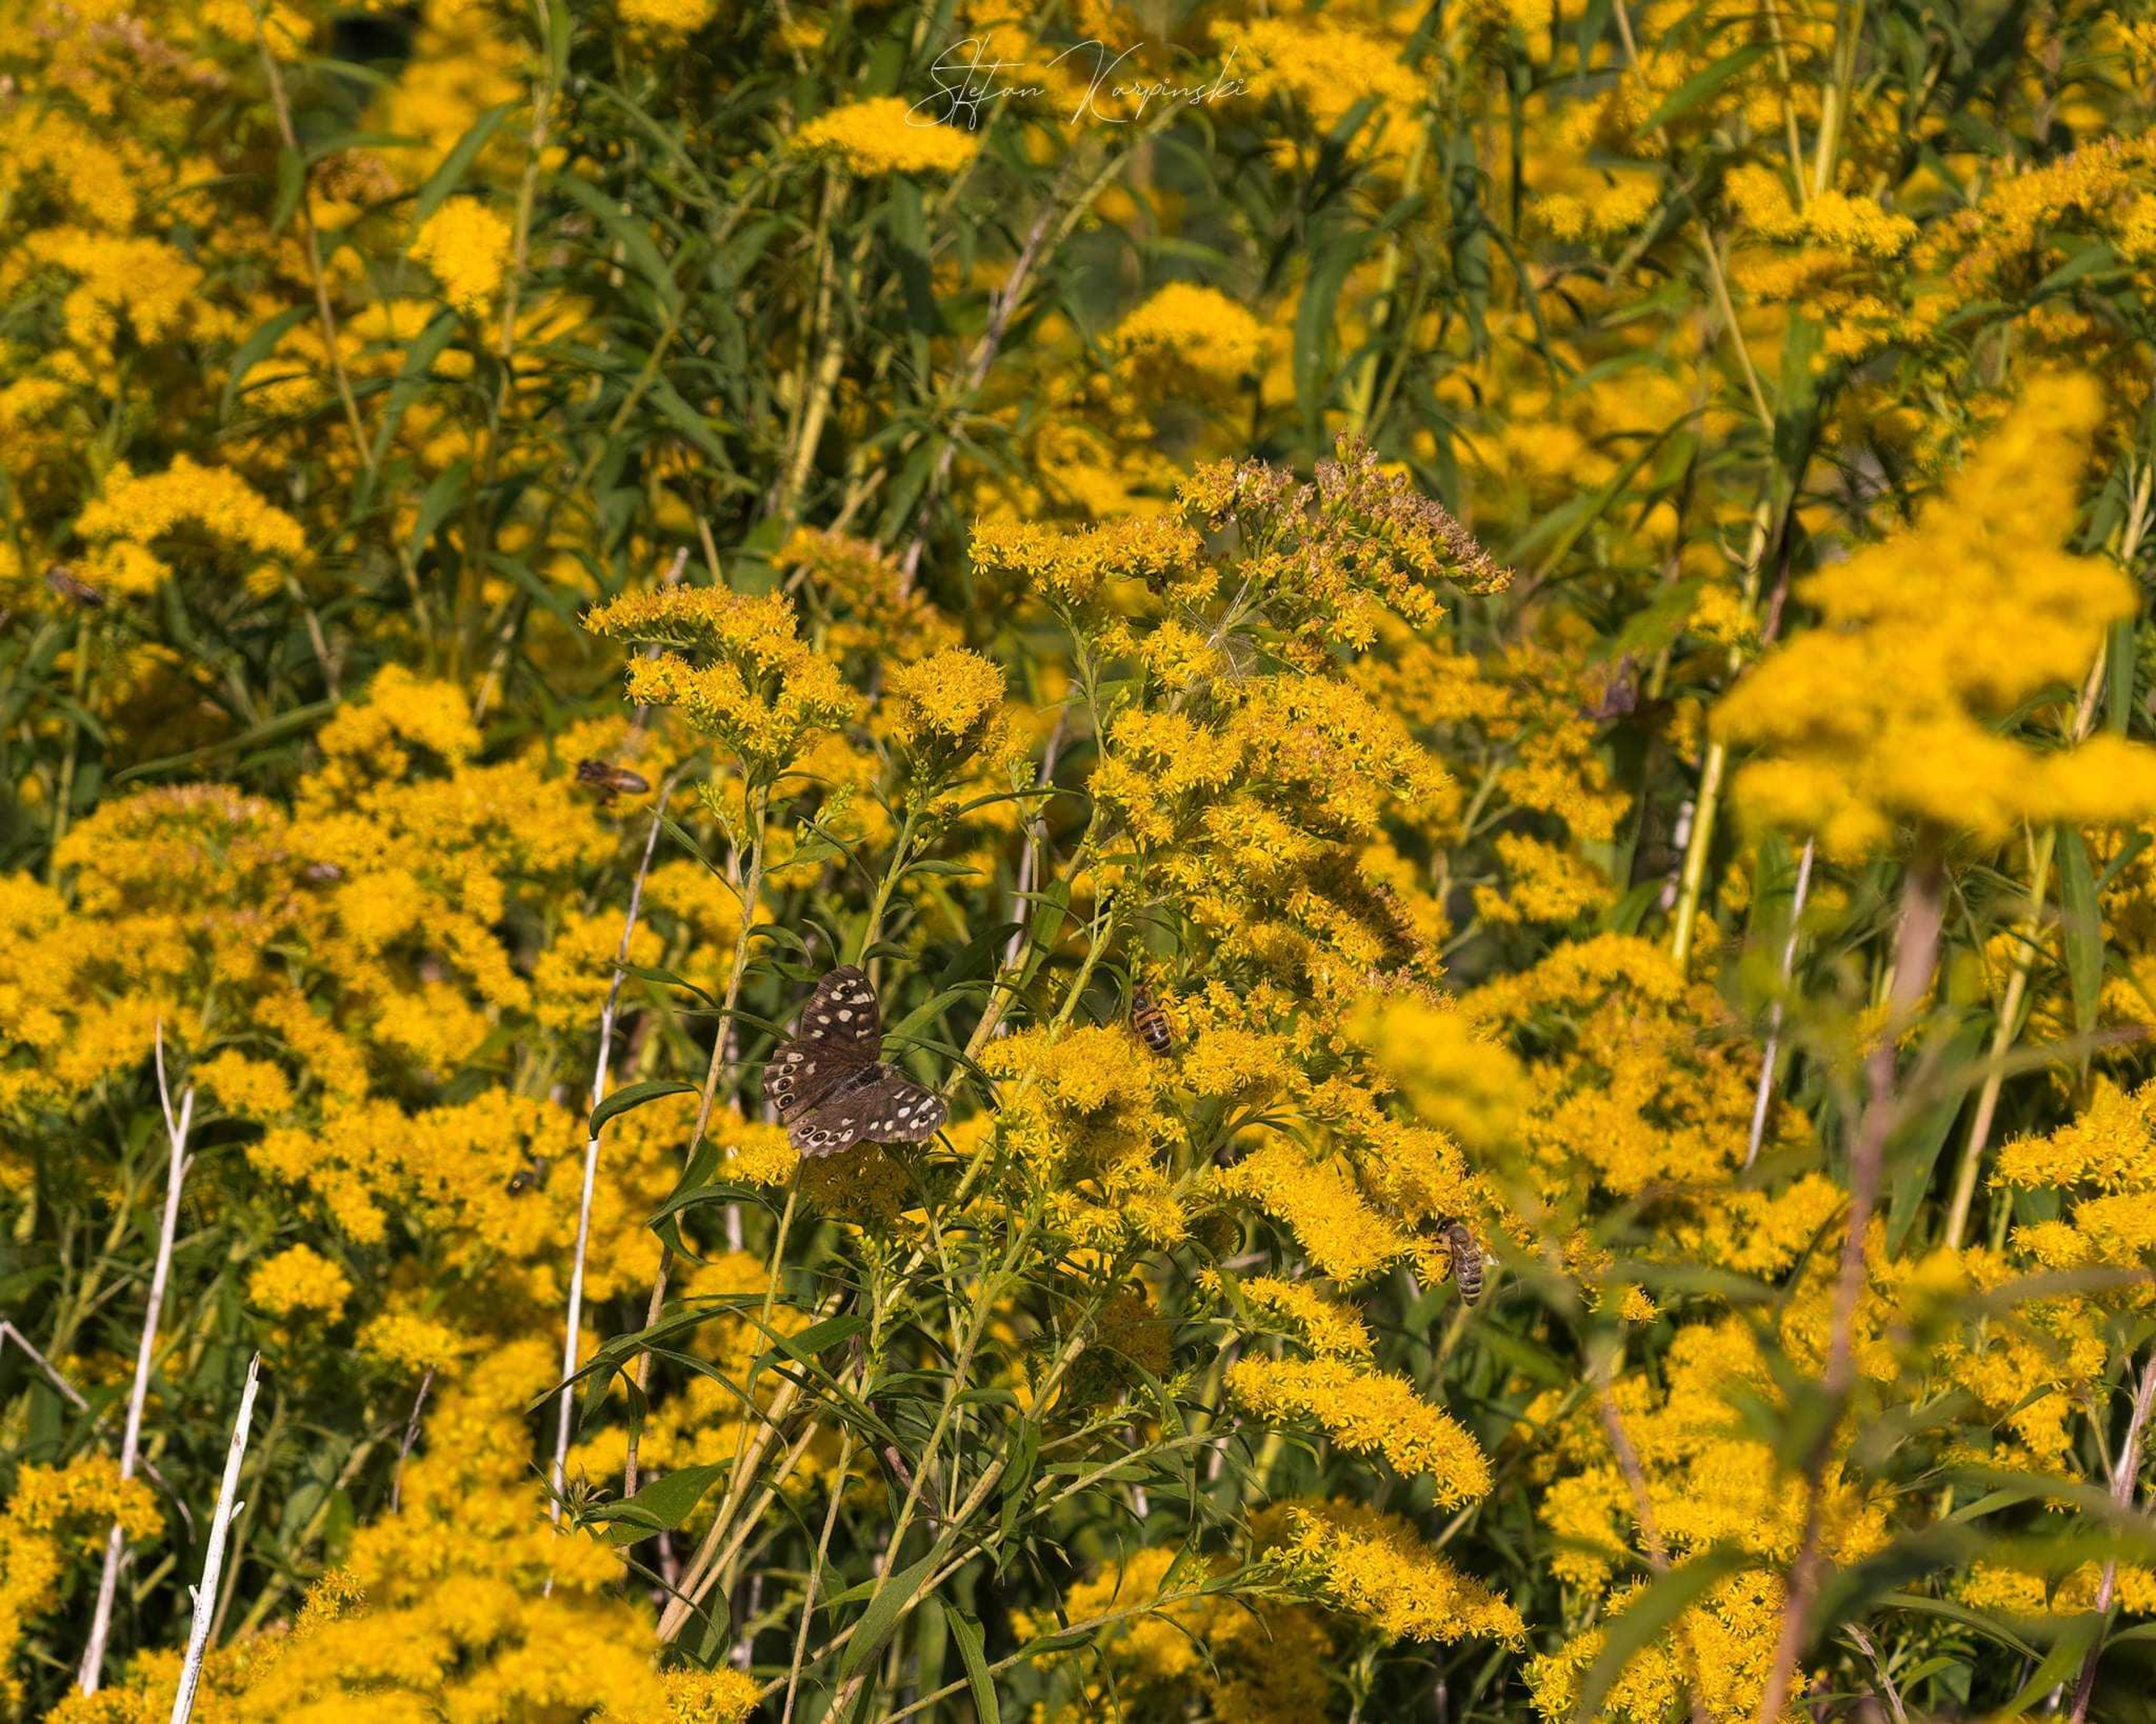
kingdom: Animalia
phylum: Arthropoda
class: Insecta
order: Lepidoptera
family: Nymphalidae
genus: Pararge
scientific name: Pararge aegeria
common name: Skovrandøje
